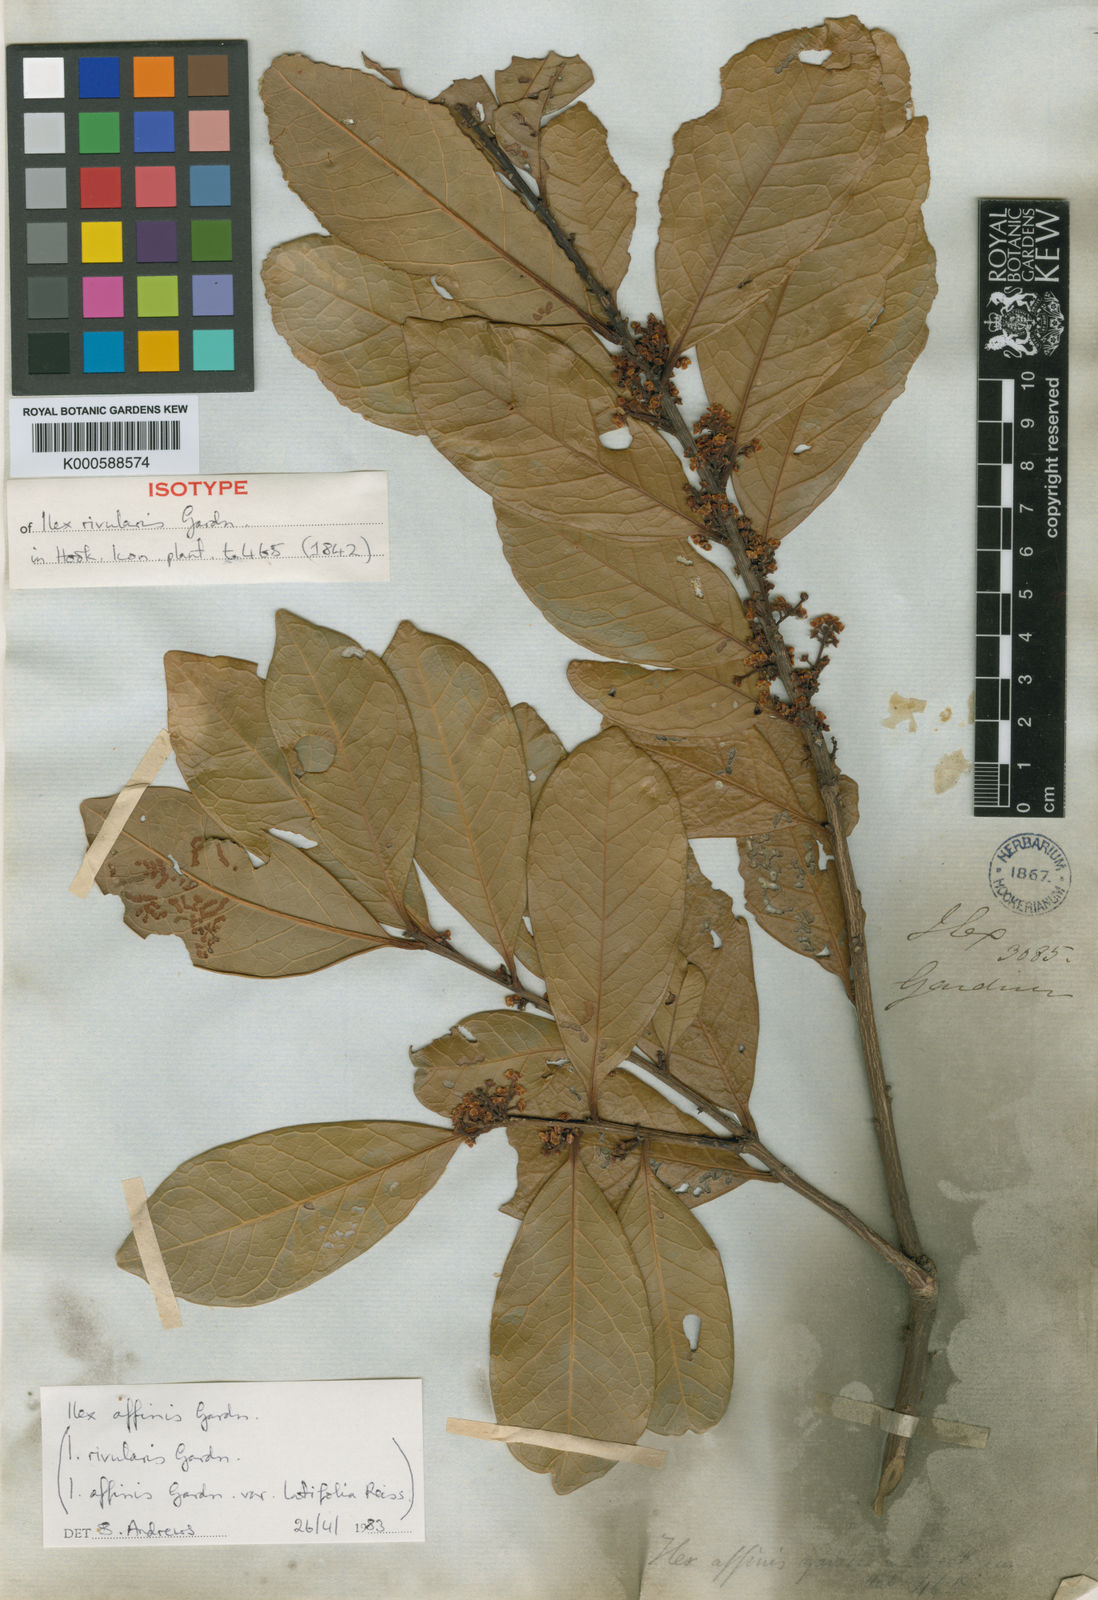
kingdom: Plantae
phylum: Tracheophyta
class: Magnoliopsida
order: Aquifoliales
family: Aquifoliaceae
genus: Ilex
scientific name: Ilex affinis
